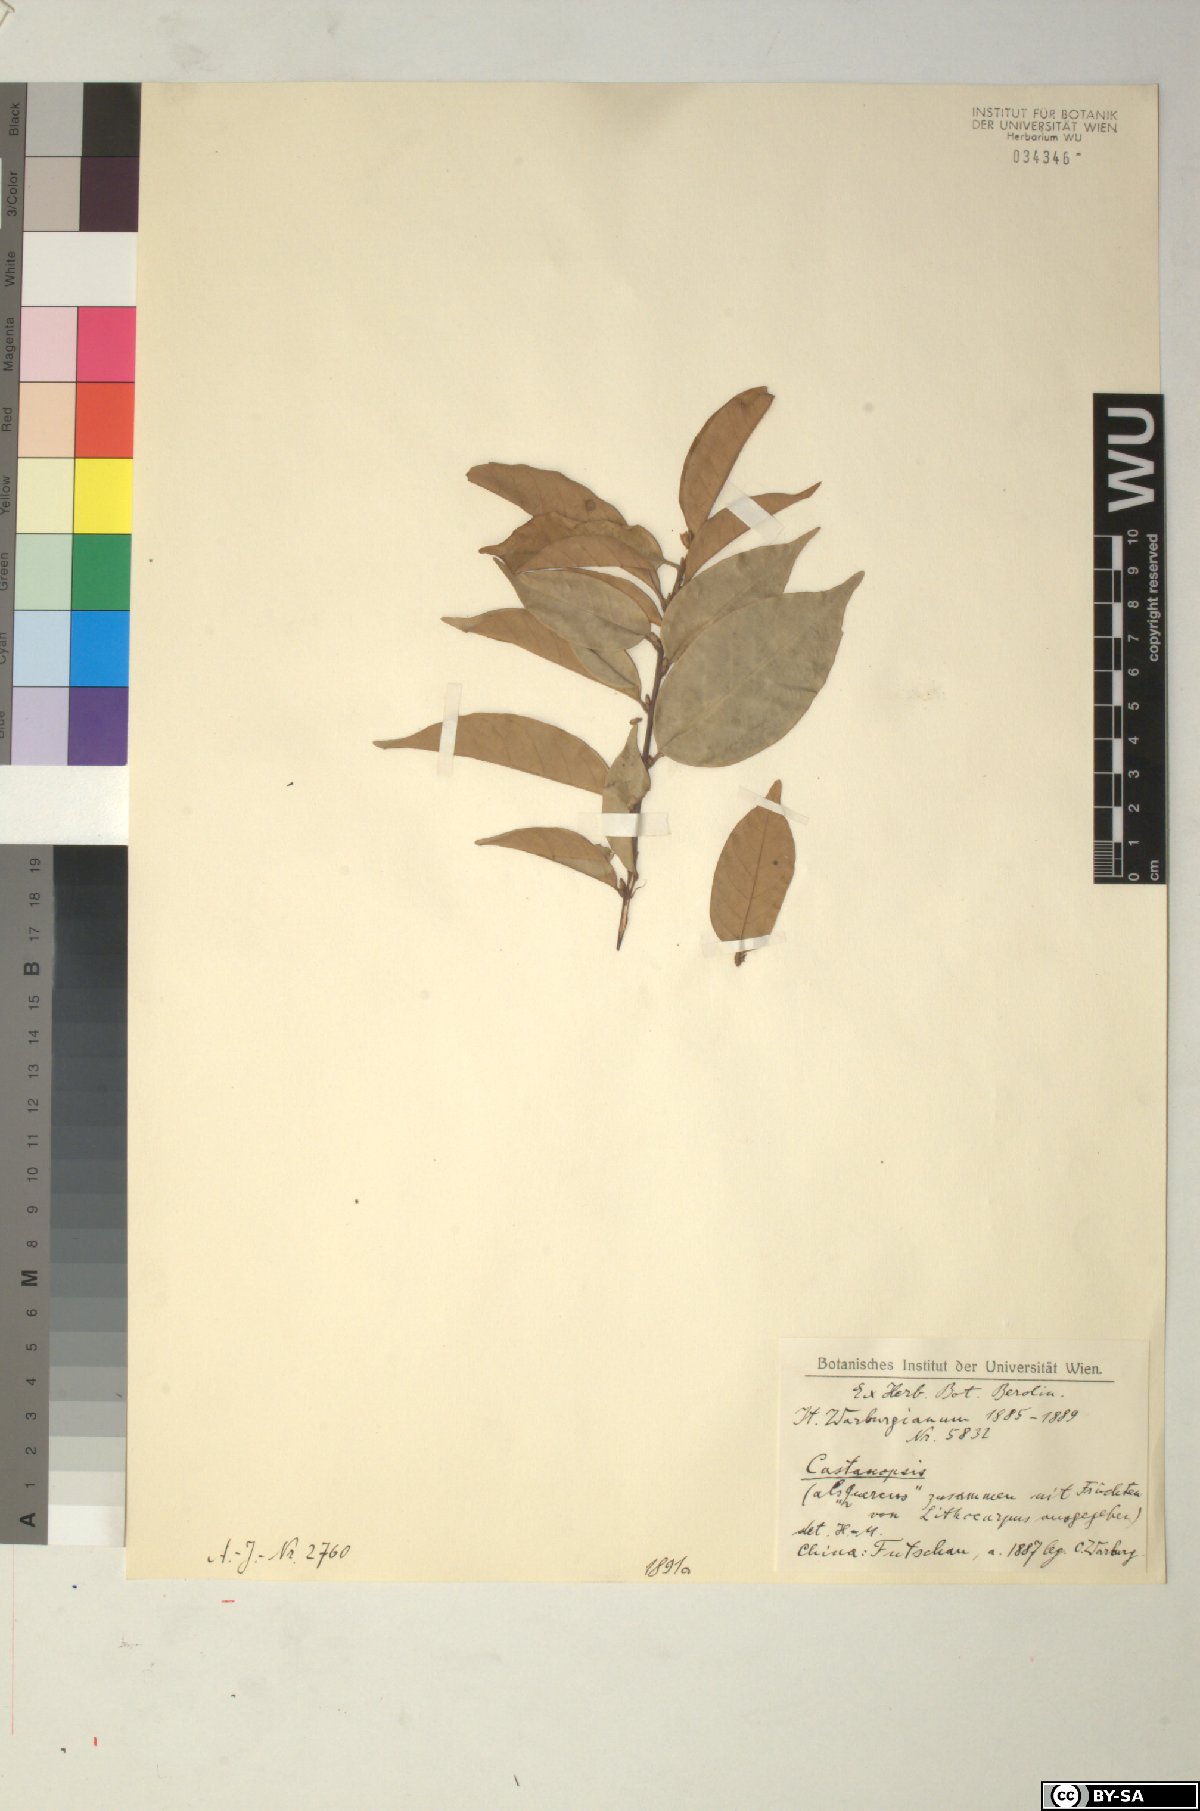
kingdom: Plantae
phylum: Tracheophyta
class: Magnoliopsida
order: Fagales
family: Fagaceae
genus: Castanopsis
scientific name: Castanopsis
